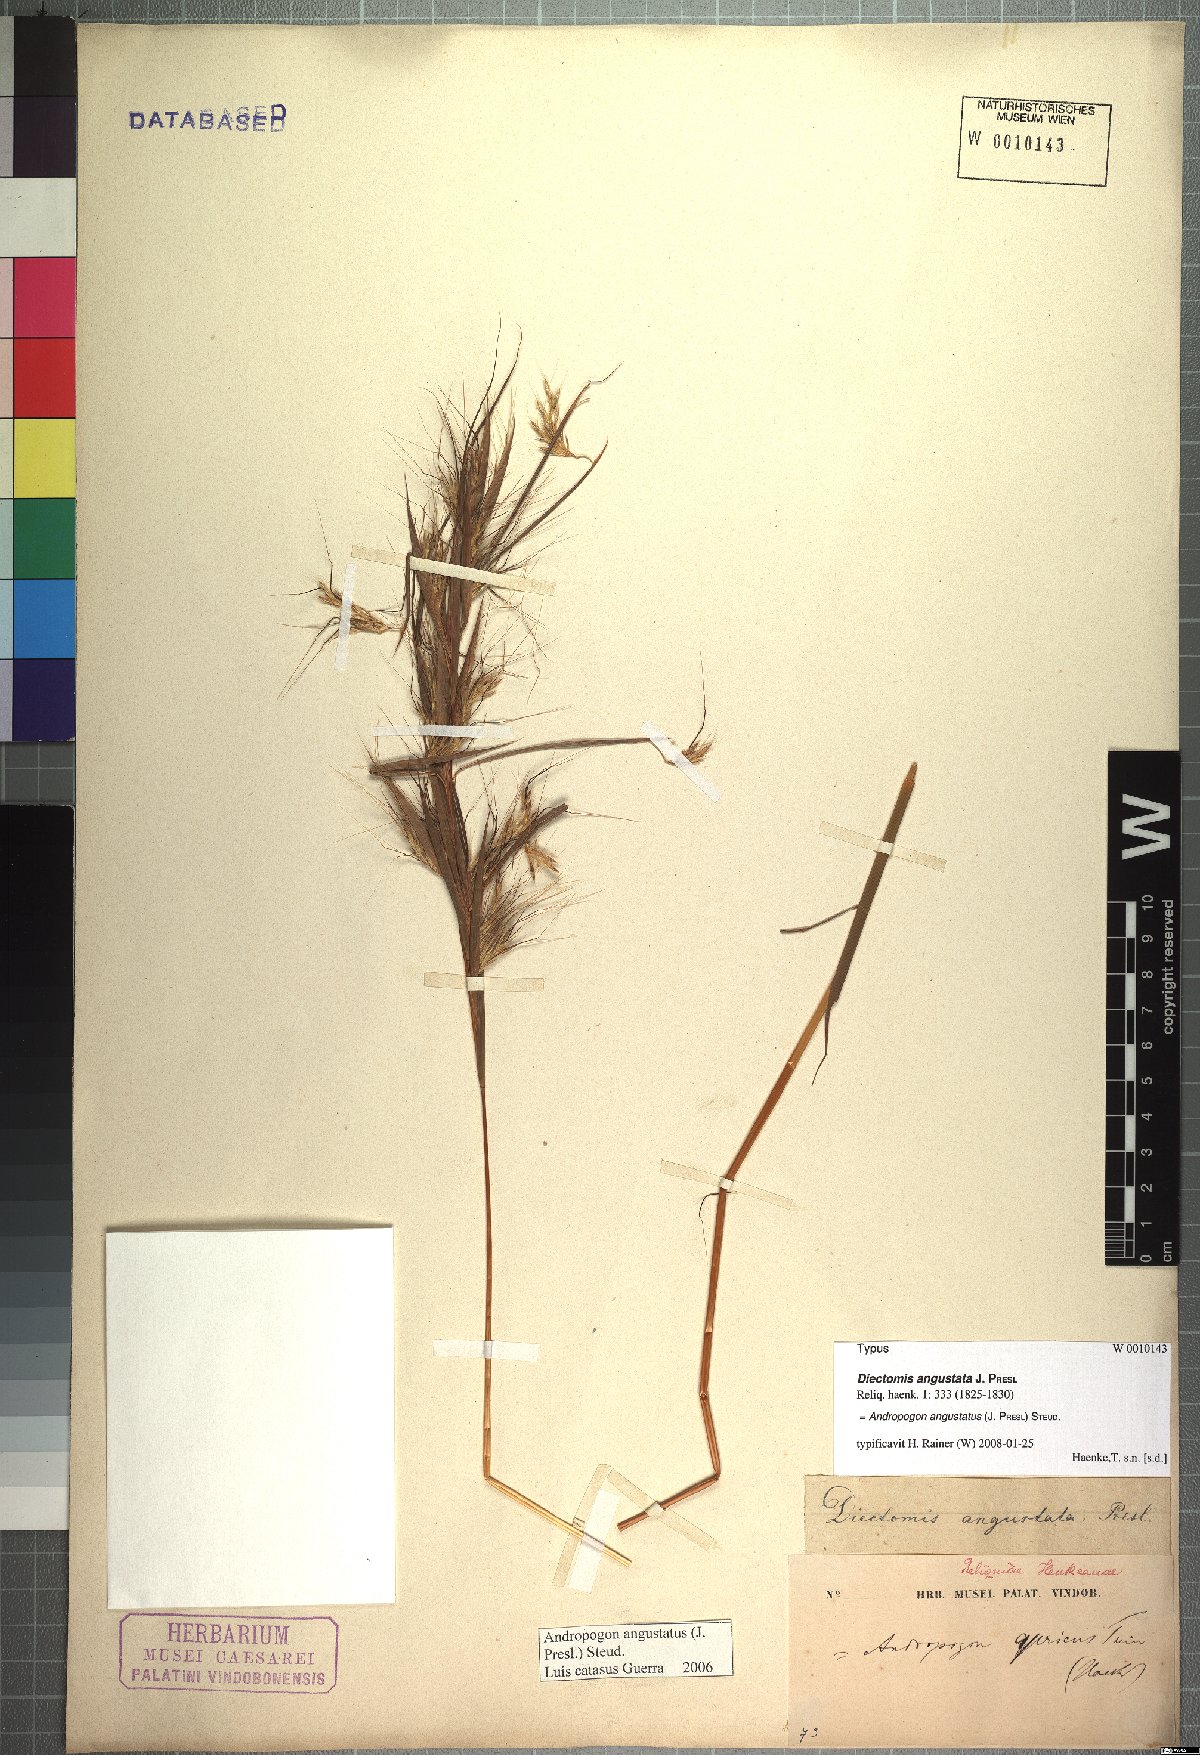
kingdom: Plantae
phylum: Tracheophyta
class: Liliopsida
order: Poales
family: Poaceae
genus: Andropogon
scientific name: Andropogon angustatus
